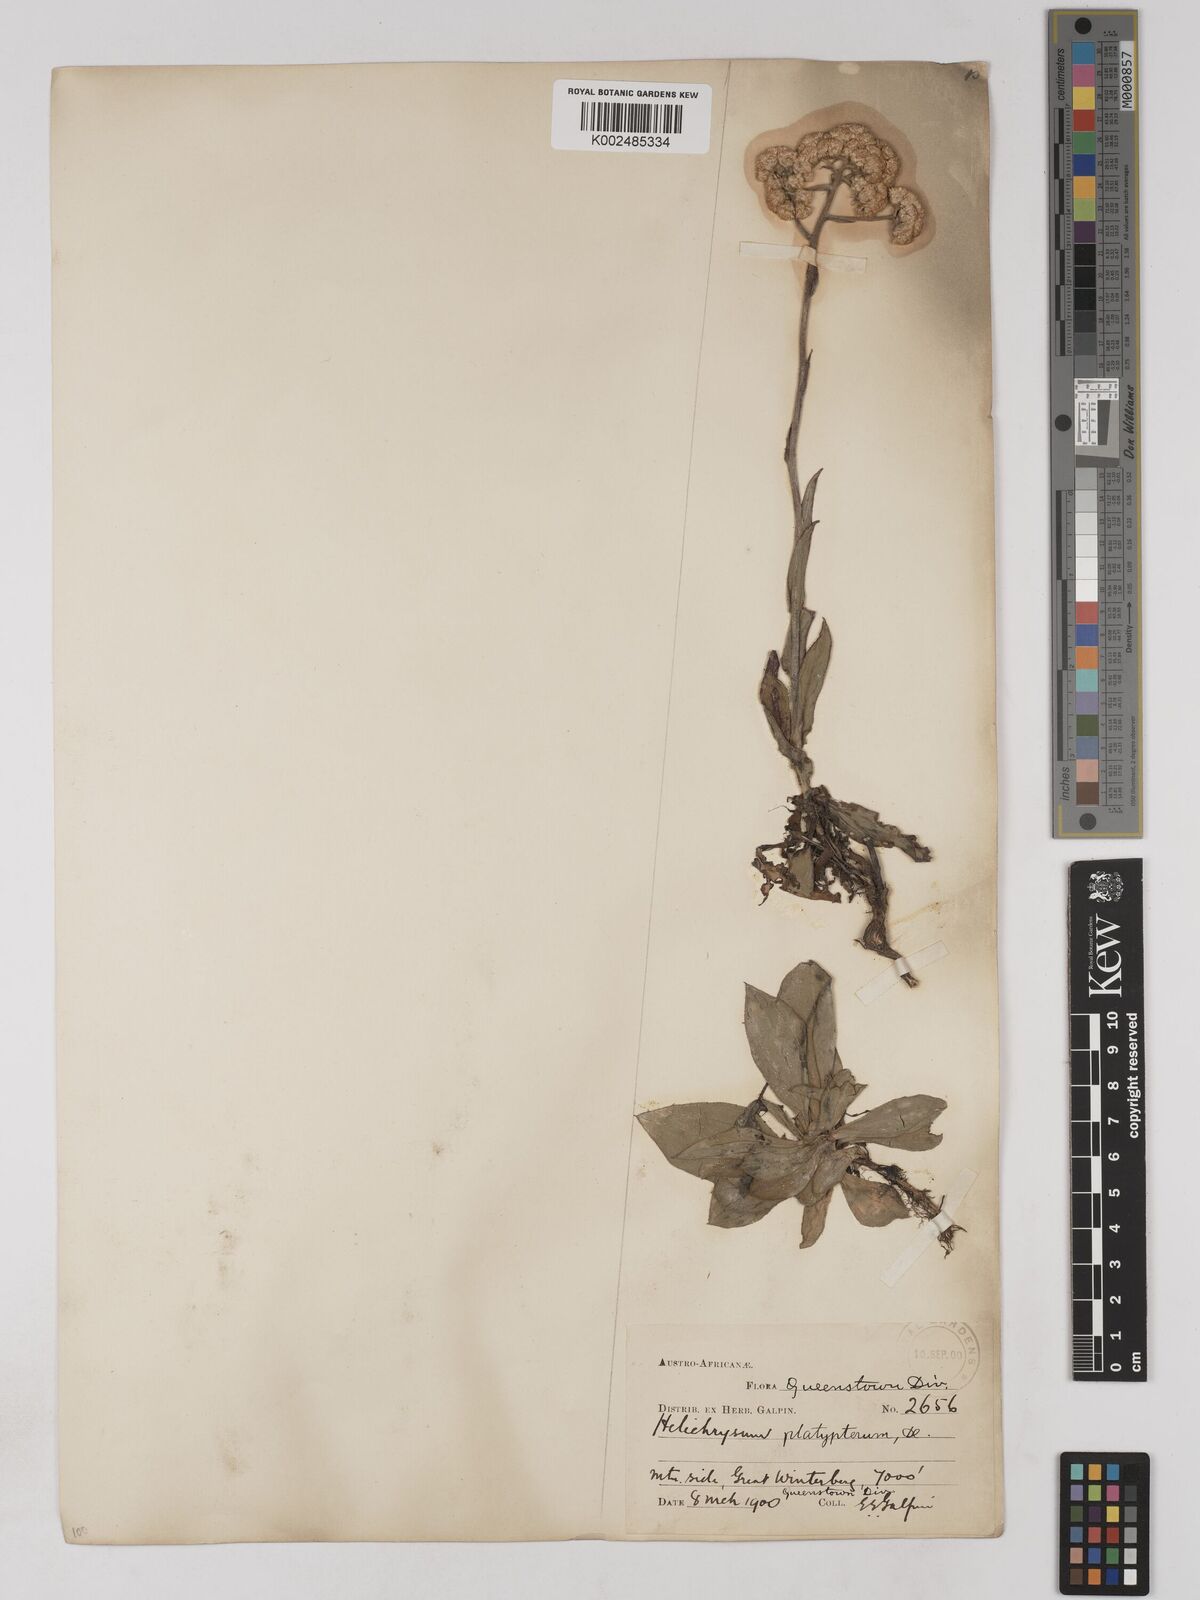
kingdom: Plantae
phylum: Tracheophyta
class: Magnoliopsida
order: Asterales
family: Asteraceae
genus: Helichrysum
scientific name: Helichrysum platypterum
